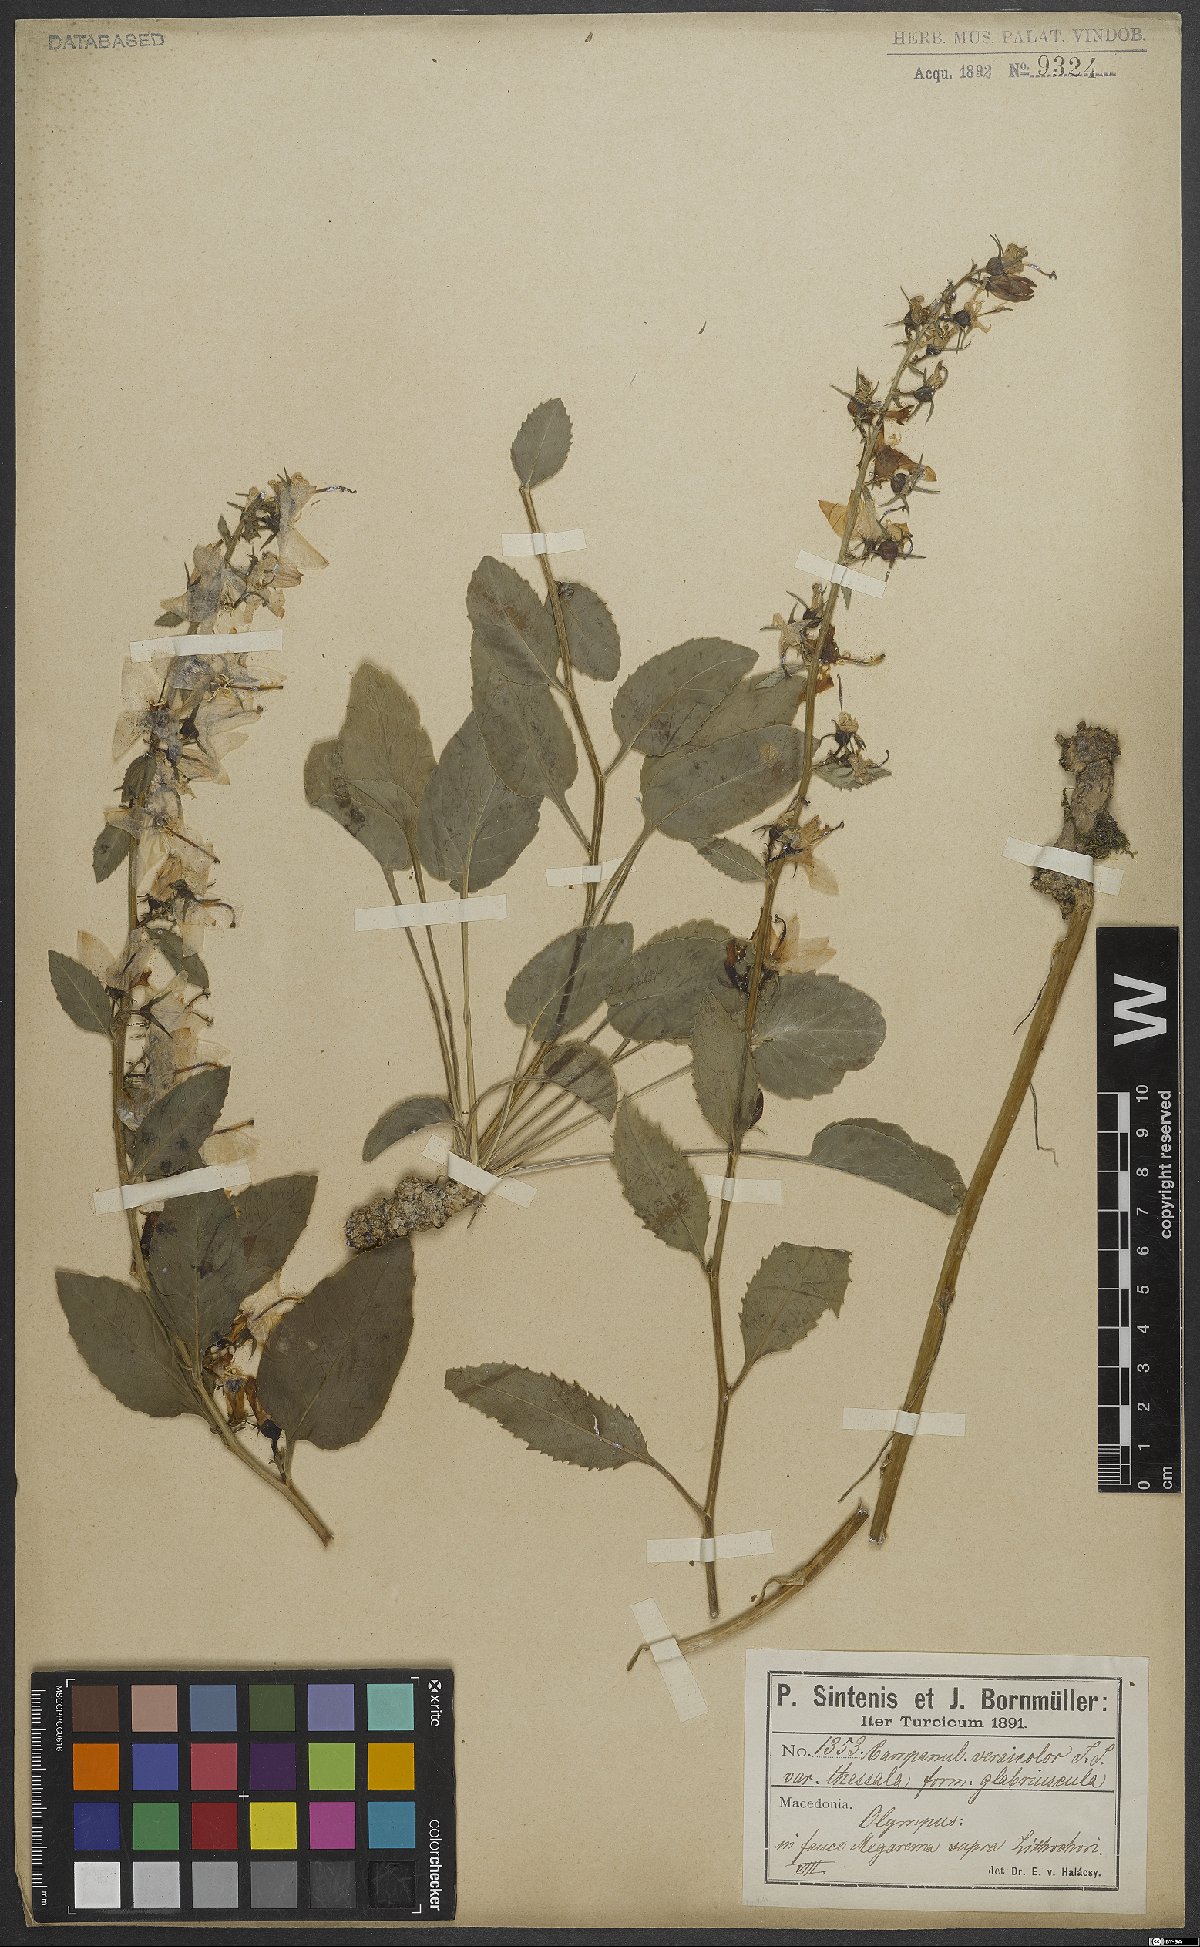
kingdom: Plantae
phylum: Tracheophyta
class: Magnoliopsida
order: Asterales
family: Campanulaceae
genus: Campanula
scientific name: Campanula versicolor
